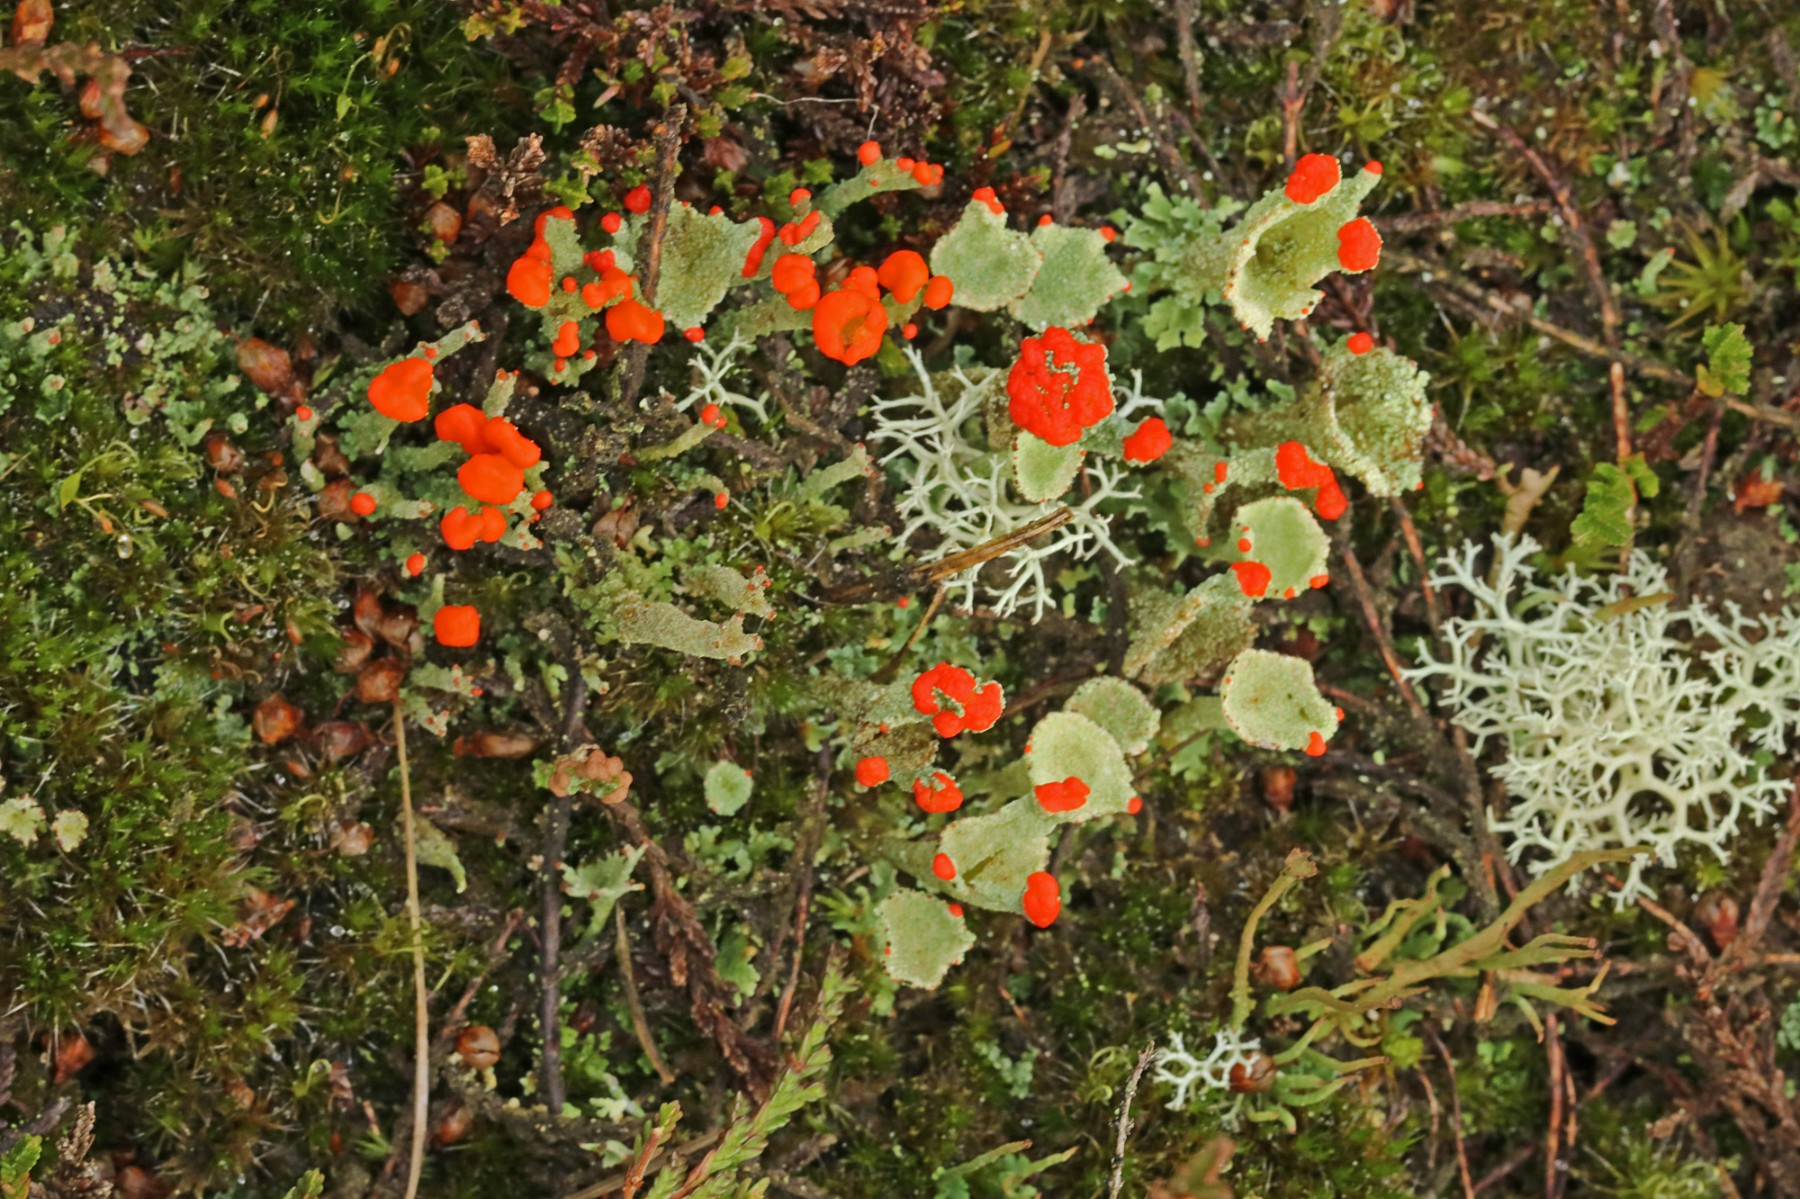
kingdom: Fungi
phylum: Ascomycota
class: Lecanoromycetes
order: Lecanorales
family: Cladoniaceae
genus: Cladonia
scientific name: Cladonia diversa
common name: rød bægerlav
